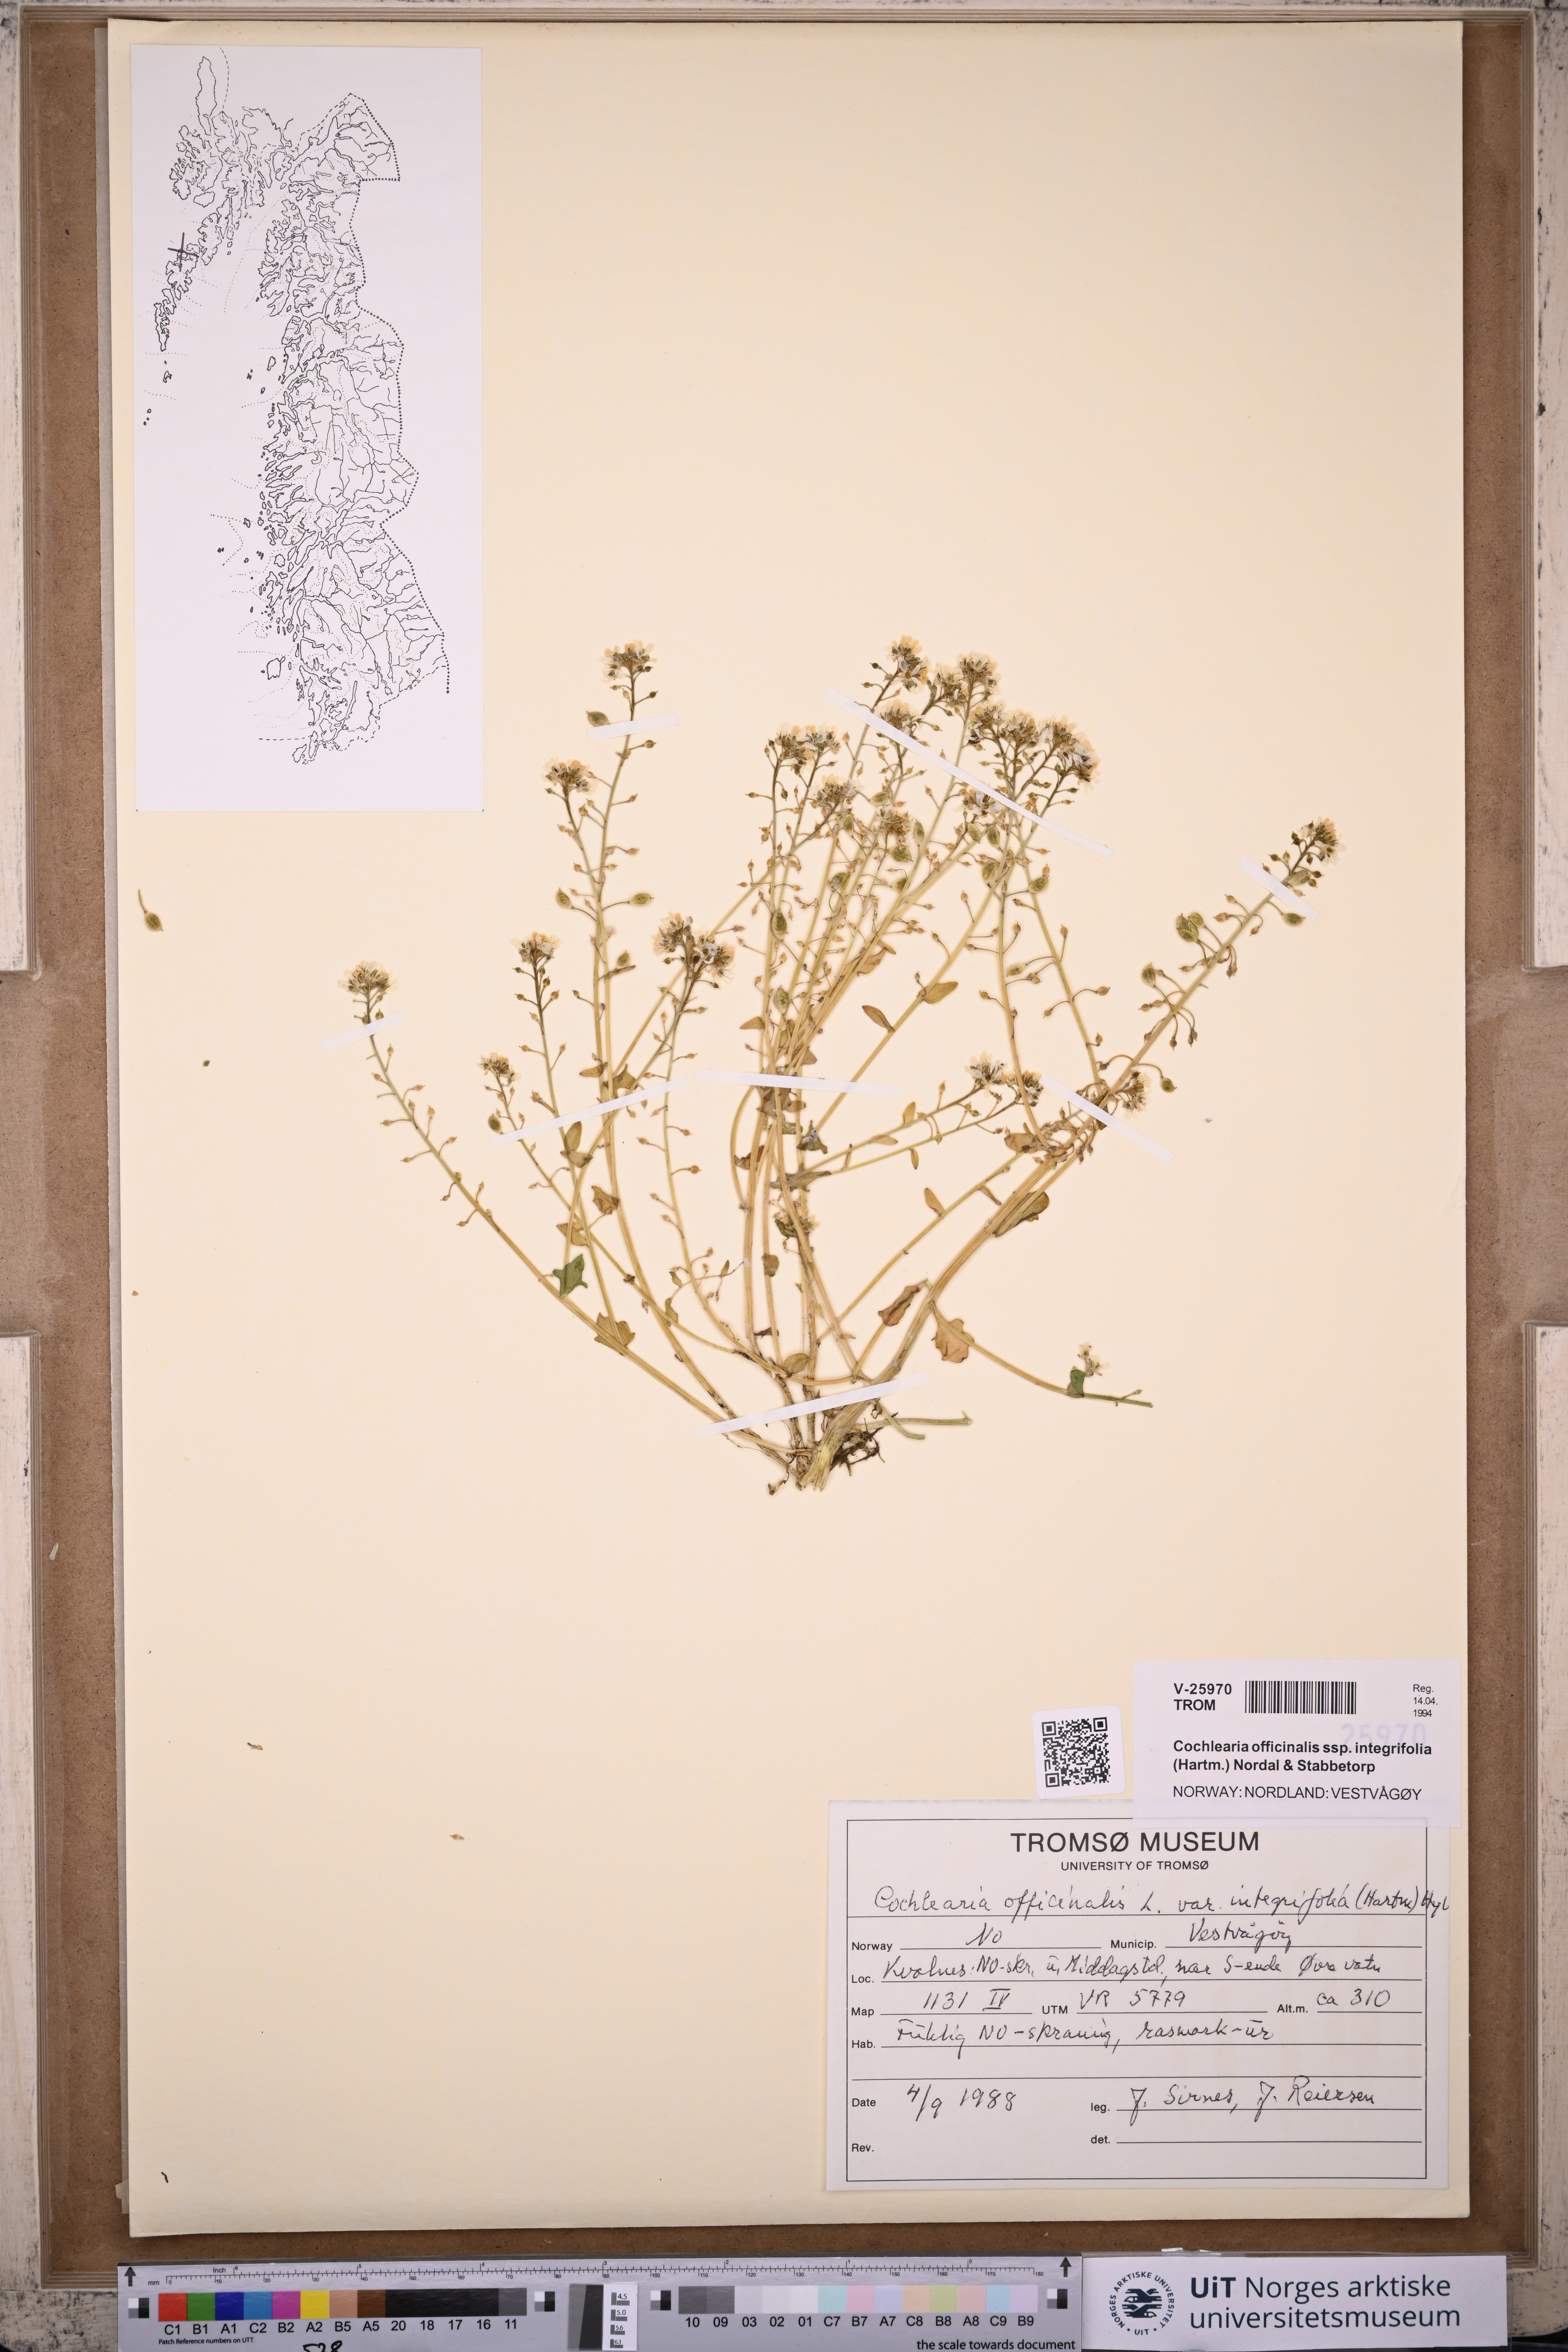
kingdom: Plantae
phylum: Tracheophyta
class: Magnoliopsida
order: Brassicales
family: Brassicaceae
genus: Cochlearia
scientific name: Cochlearia officinalis
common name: Scurvy-grass
